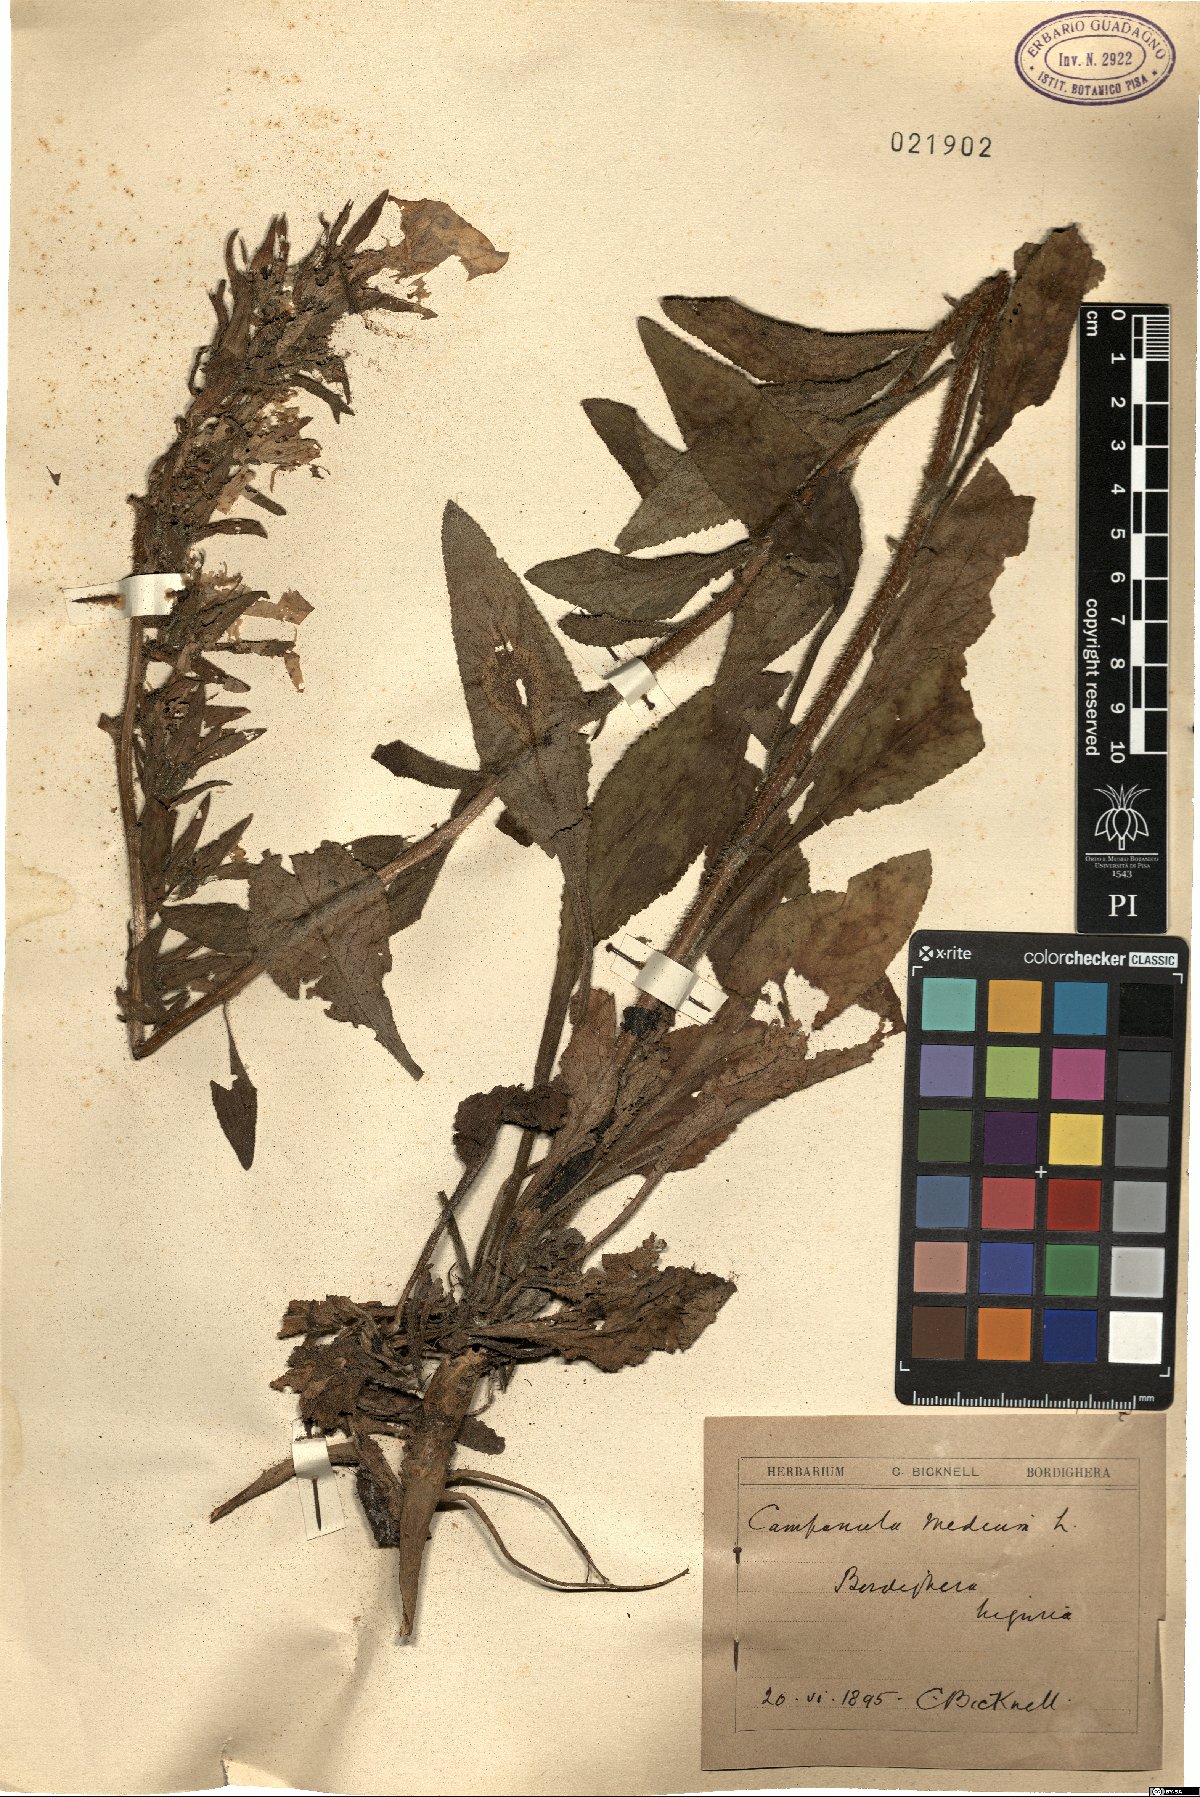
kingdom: Plantae
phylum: Tracheophyta
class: Magnoliopsida
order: Asterales
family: Campanulaceae
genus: Campanula
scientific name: Campanula medium
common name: Canterbury bells
